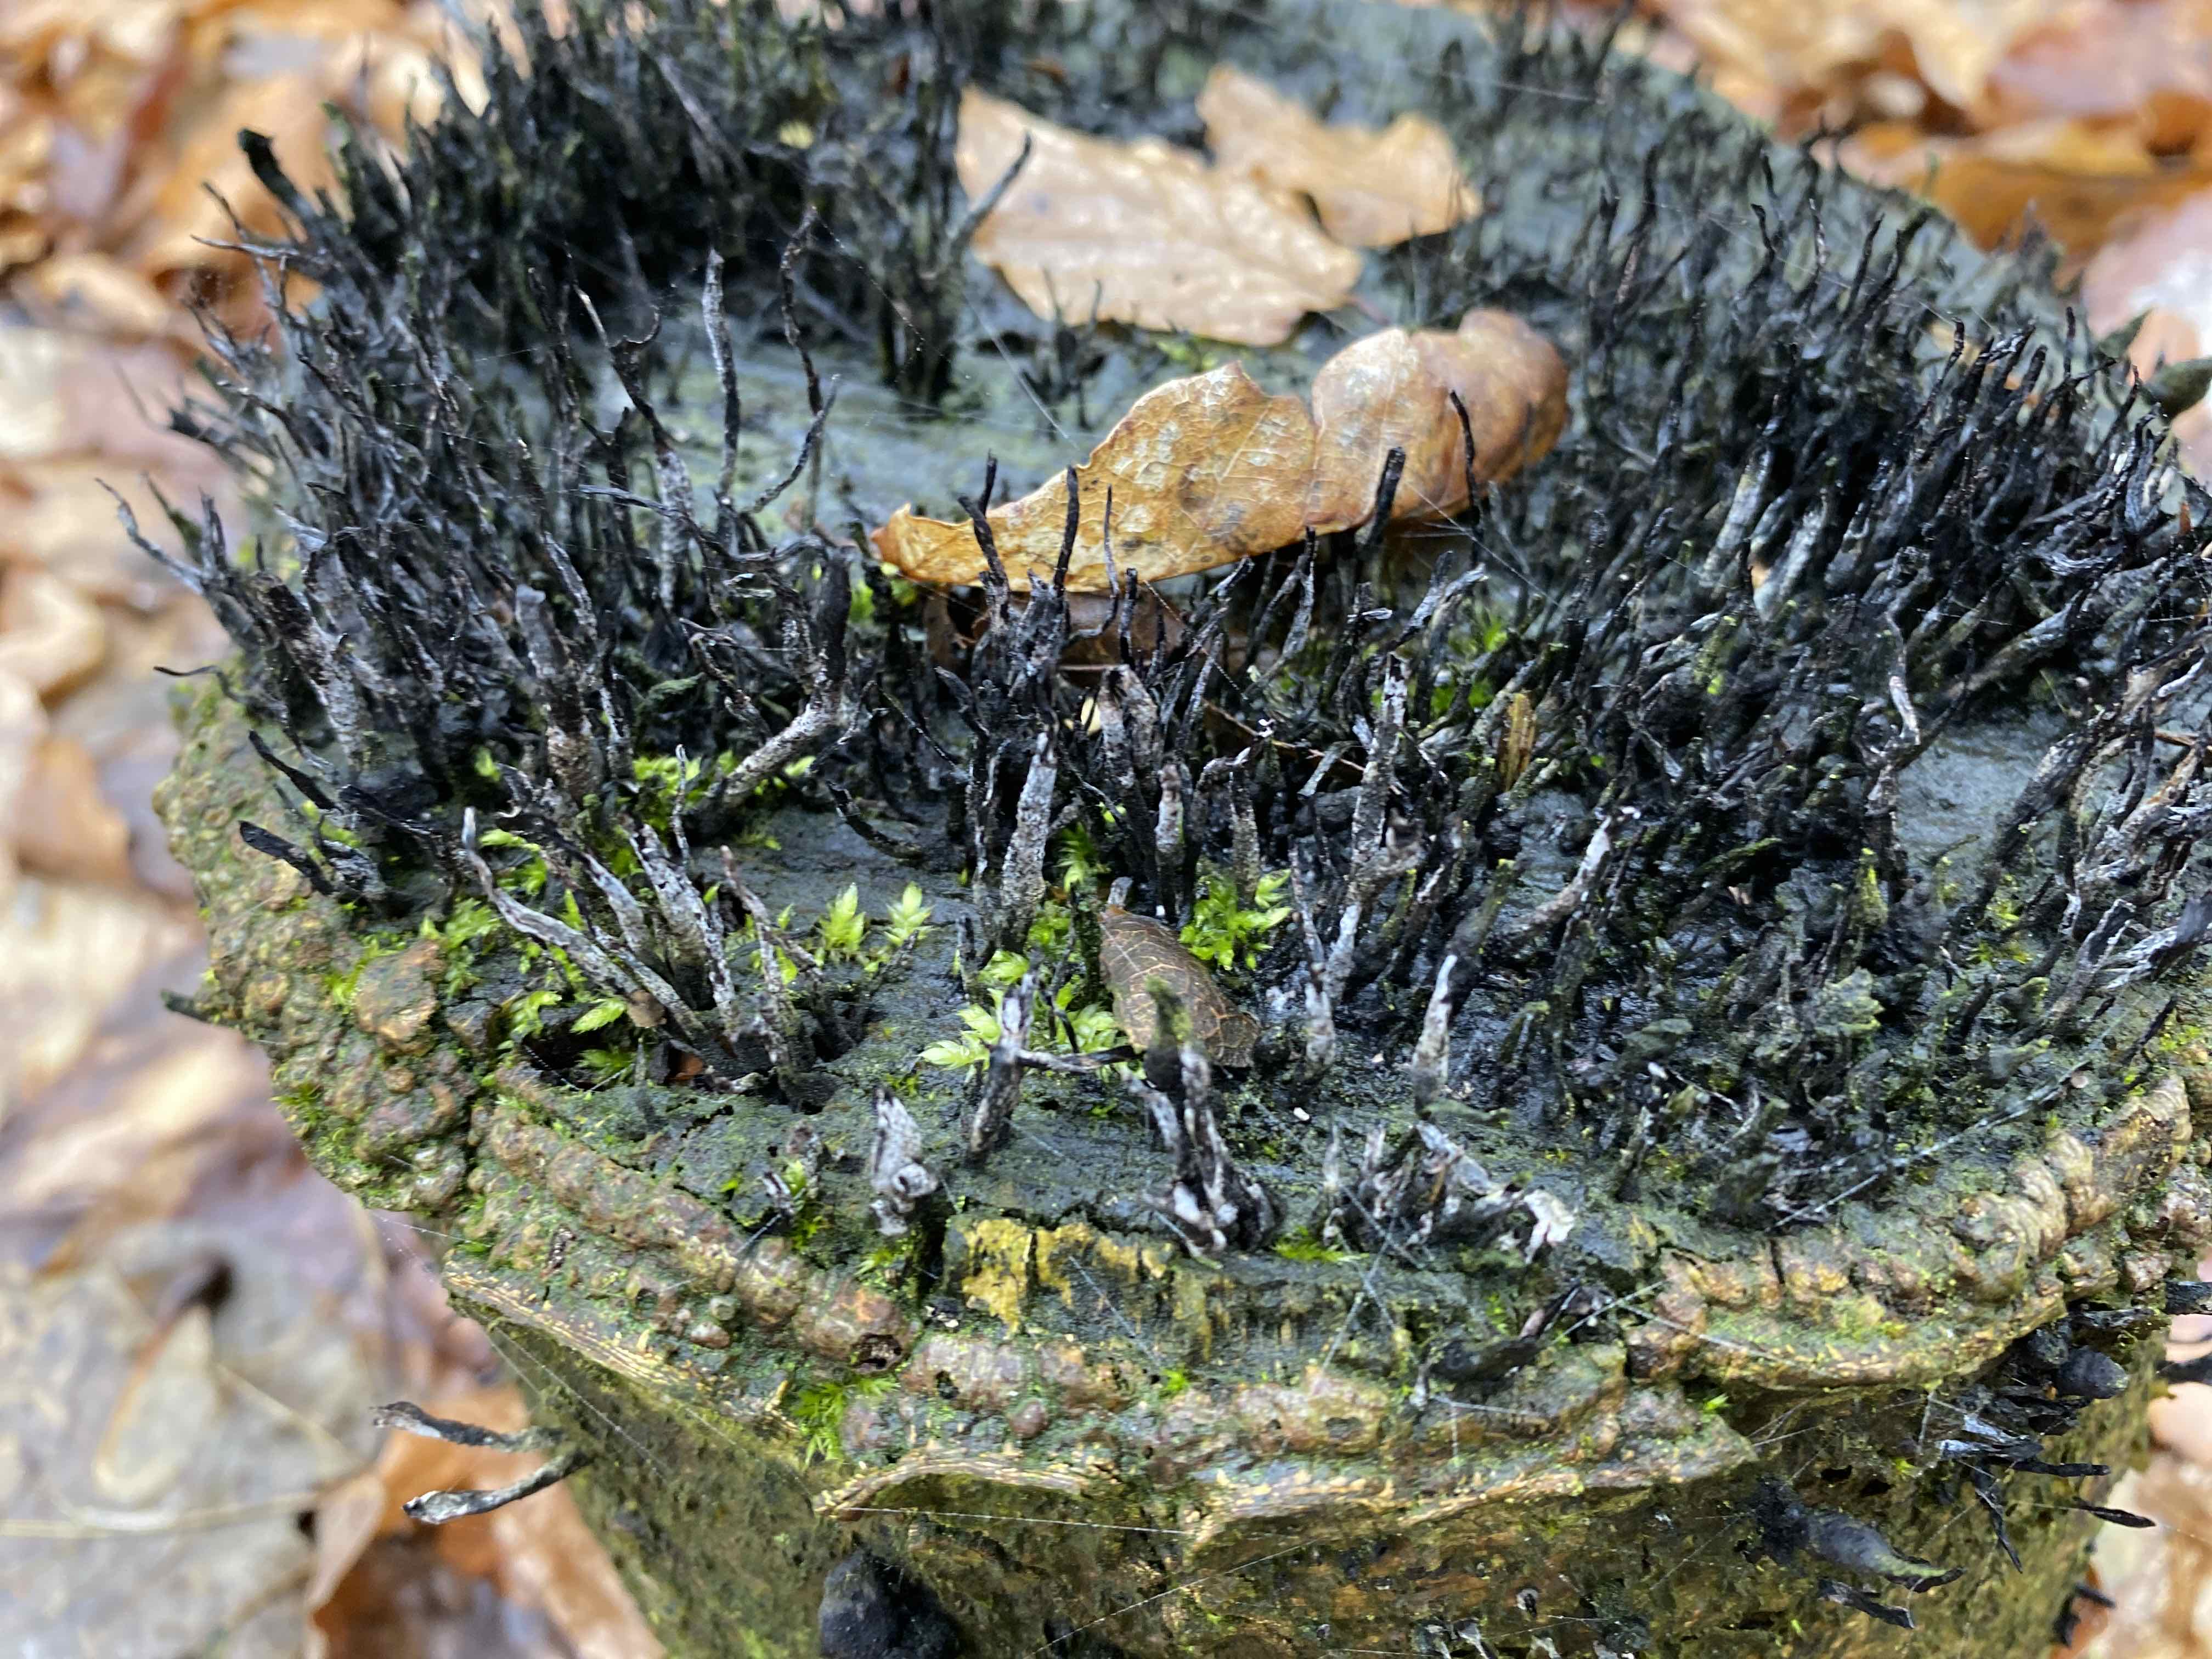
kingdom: Fungi
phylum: Ascomycota
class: Sordariomycetes
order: Xylariales
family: Xylariaceae
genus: Xylaria
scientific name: Xylaria hypoxylon
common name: grenet stødsvamp
